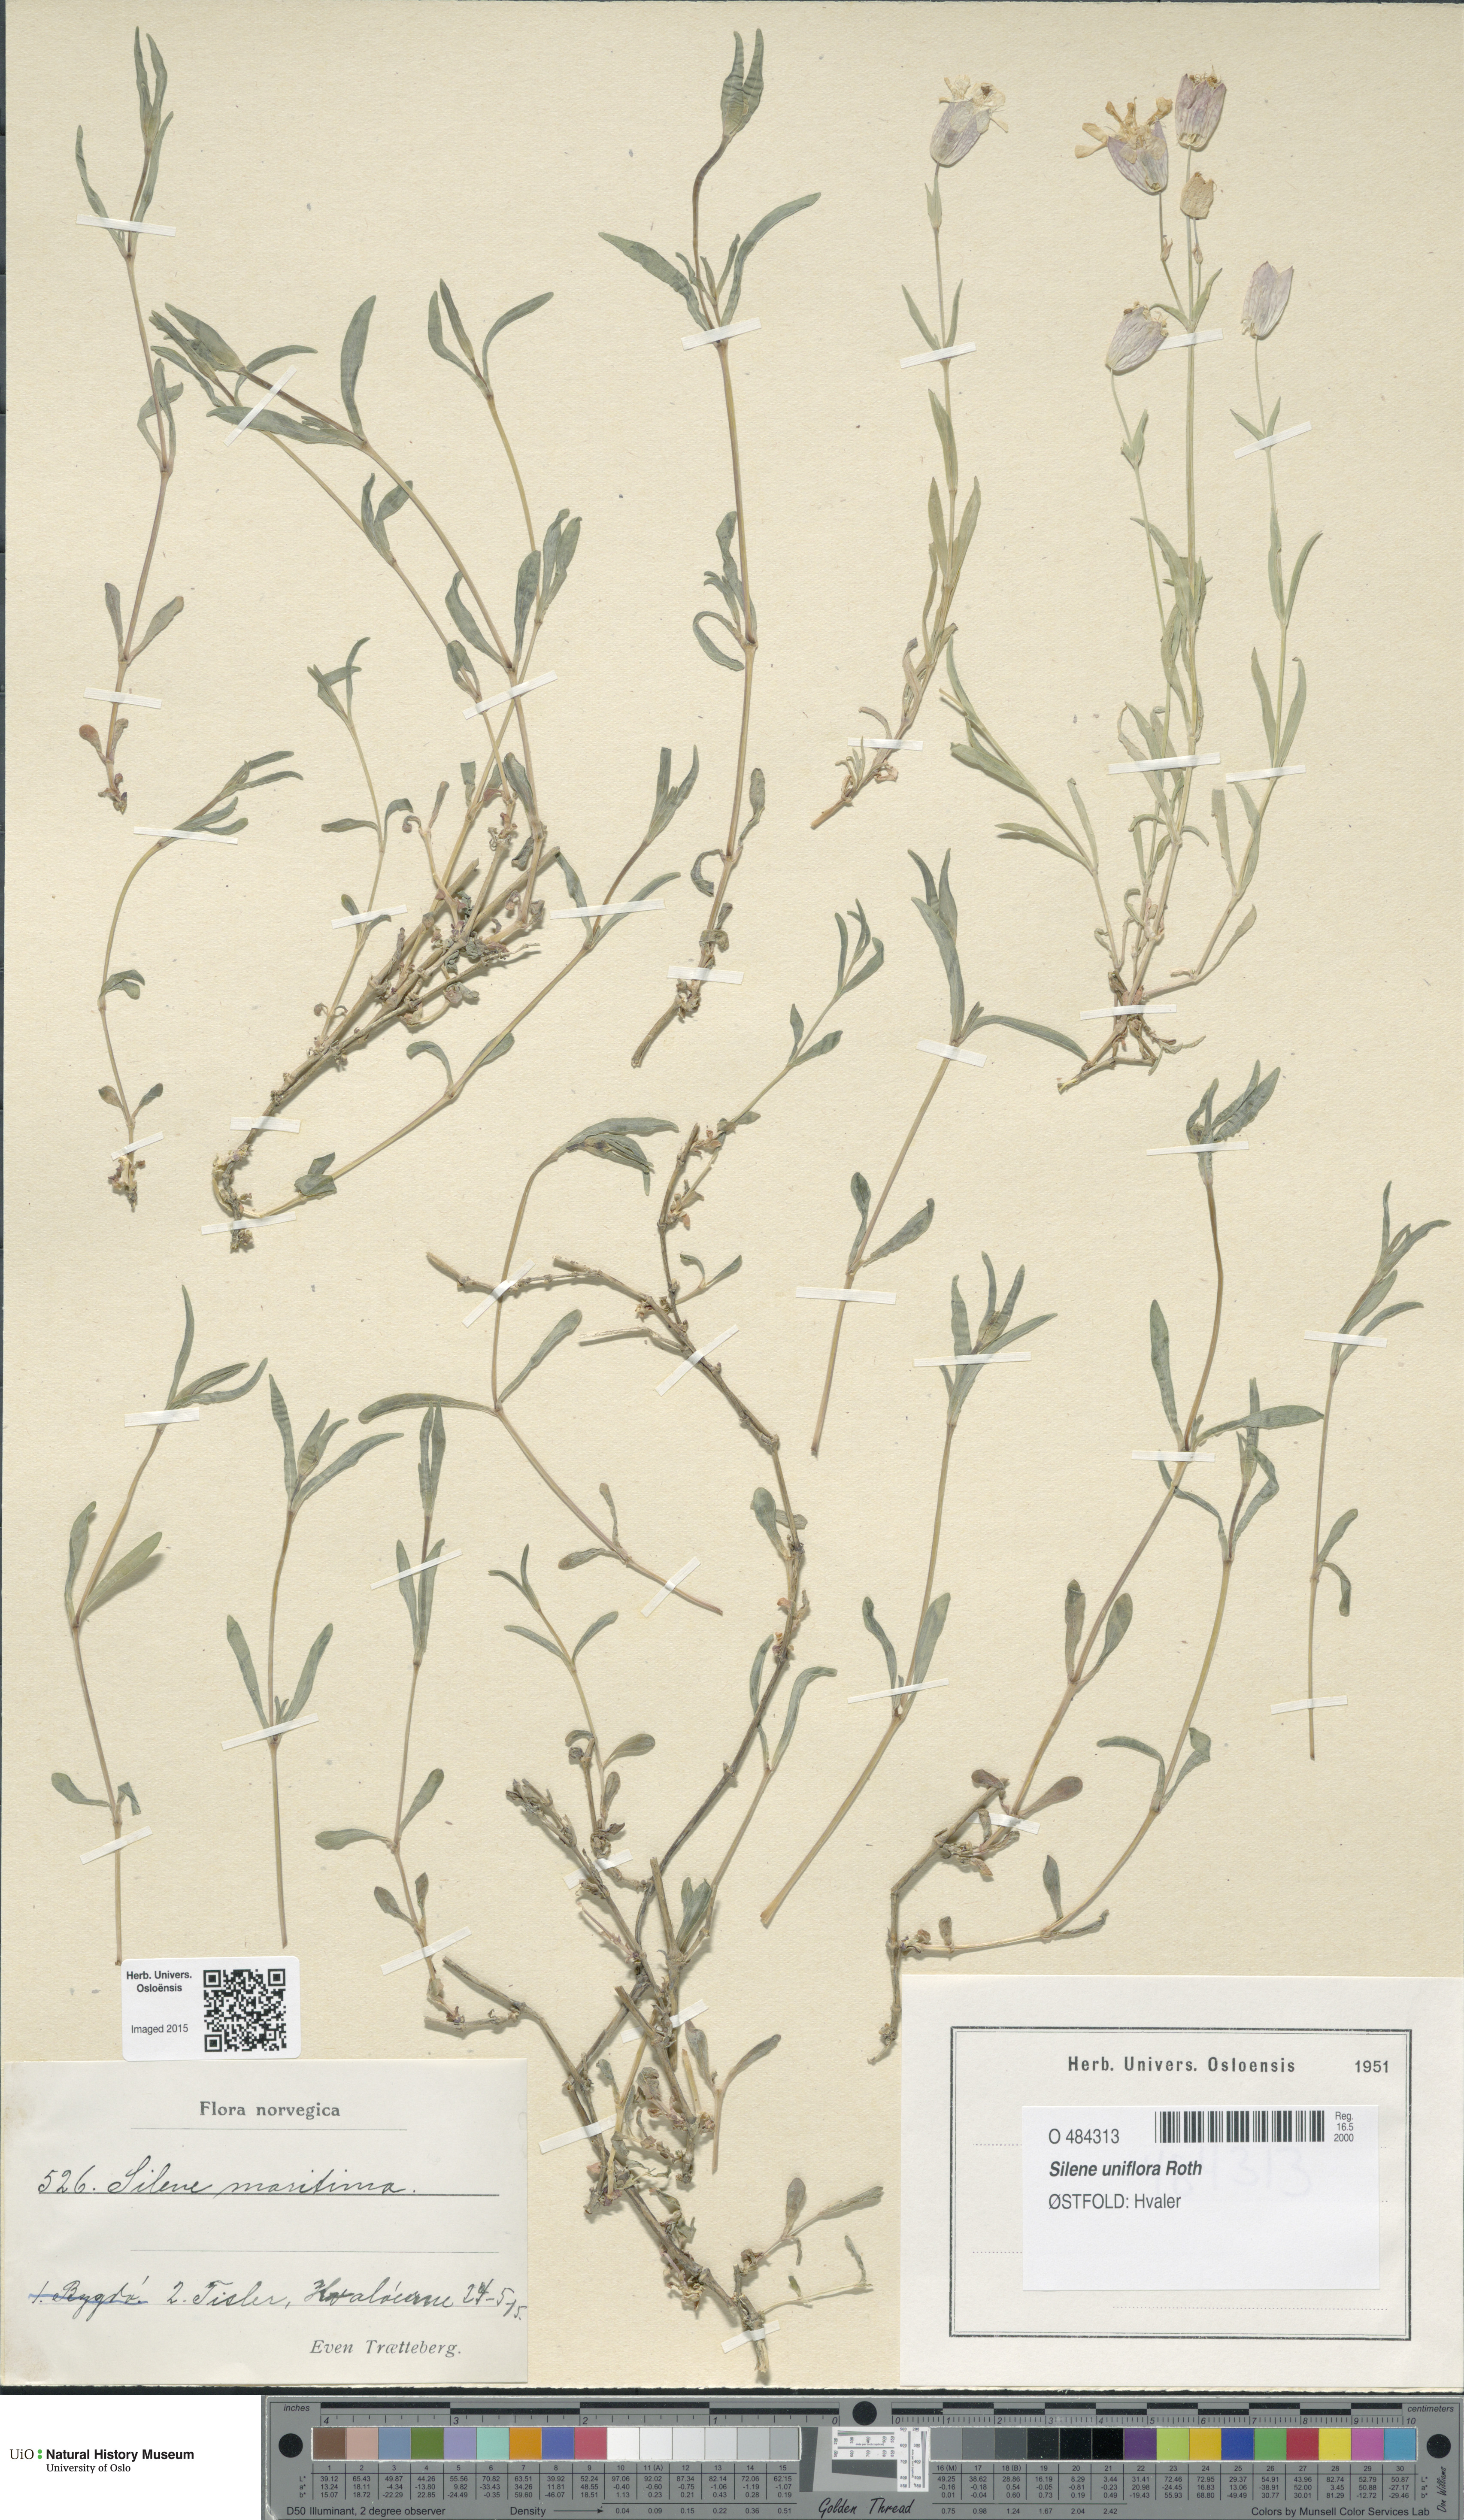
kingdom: Plantae
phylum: Tracheophyta
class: Magnoliopsida
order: Caryophyllales
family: Caryophyllaceae
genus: Silene
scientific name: Silene uniflora
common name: Sea campion
